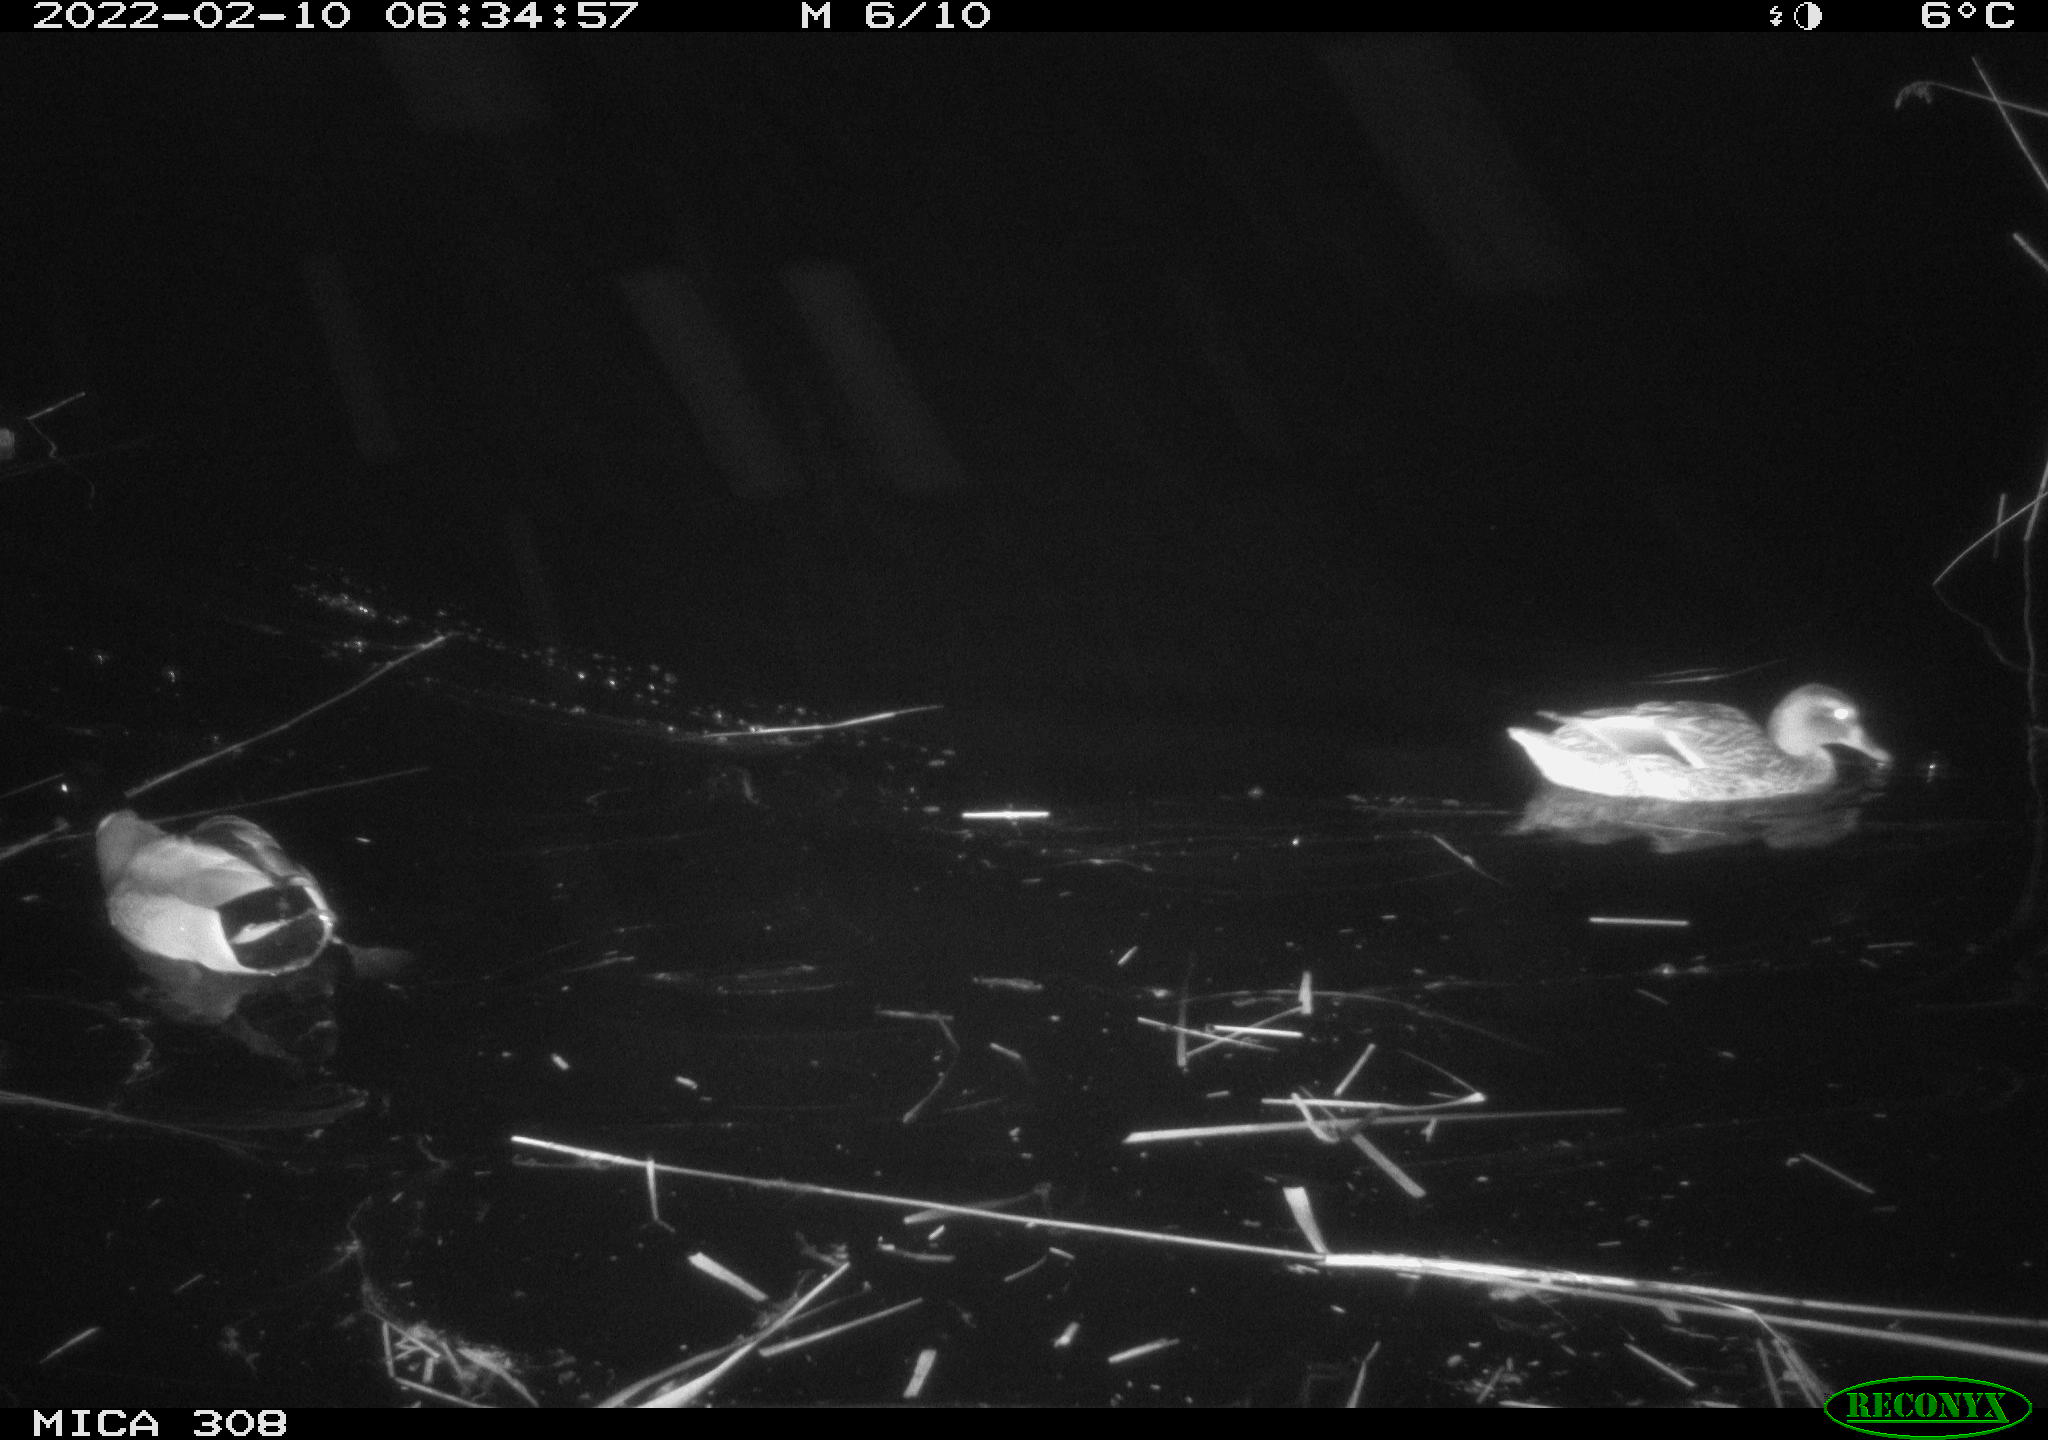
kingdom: Animalia
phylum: Chordata
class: Aves
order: Anseriformes
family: Anatidae
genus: Mareca
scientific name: Mareca strepera
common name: Gadwall
